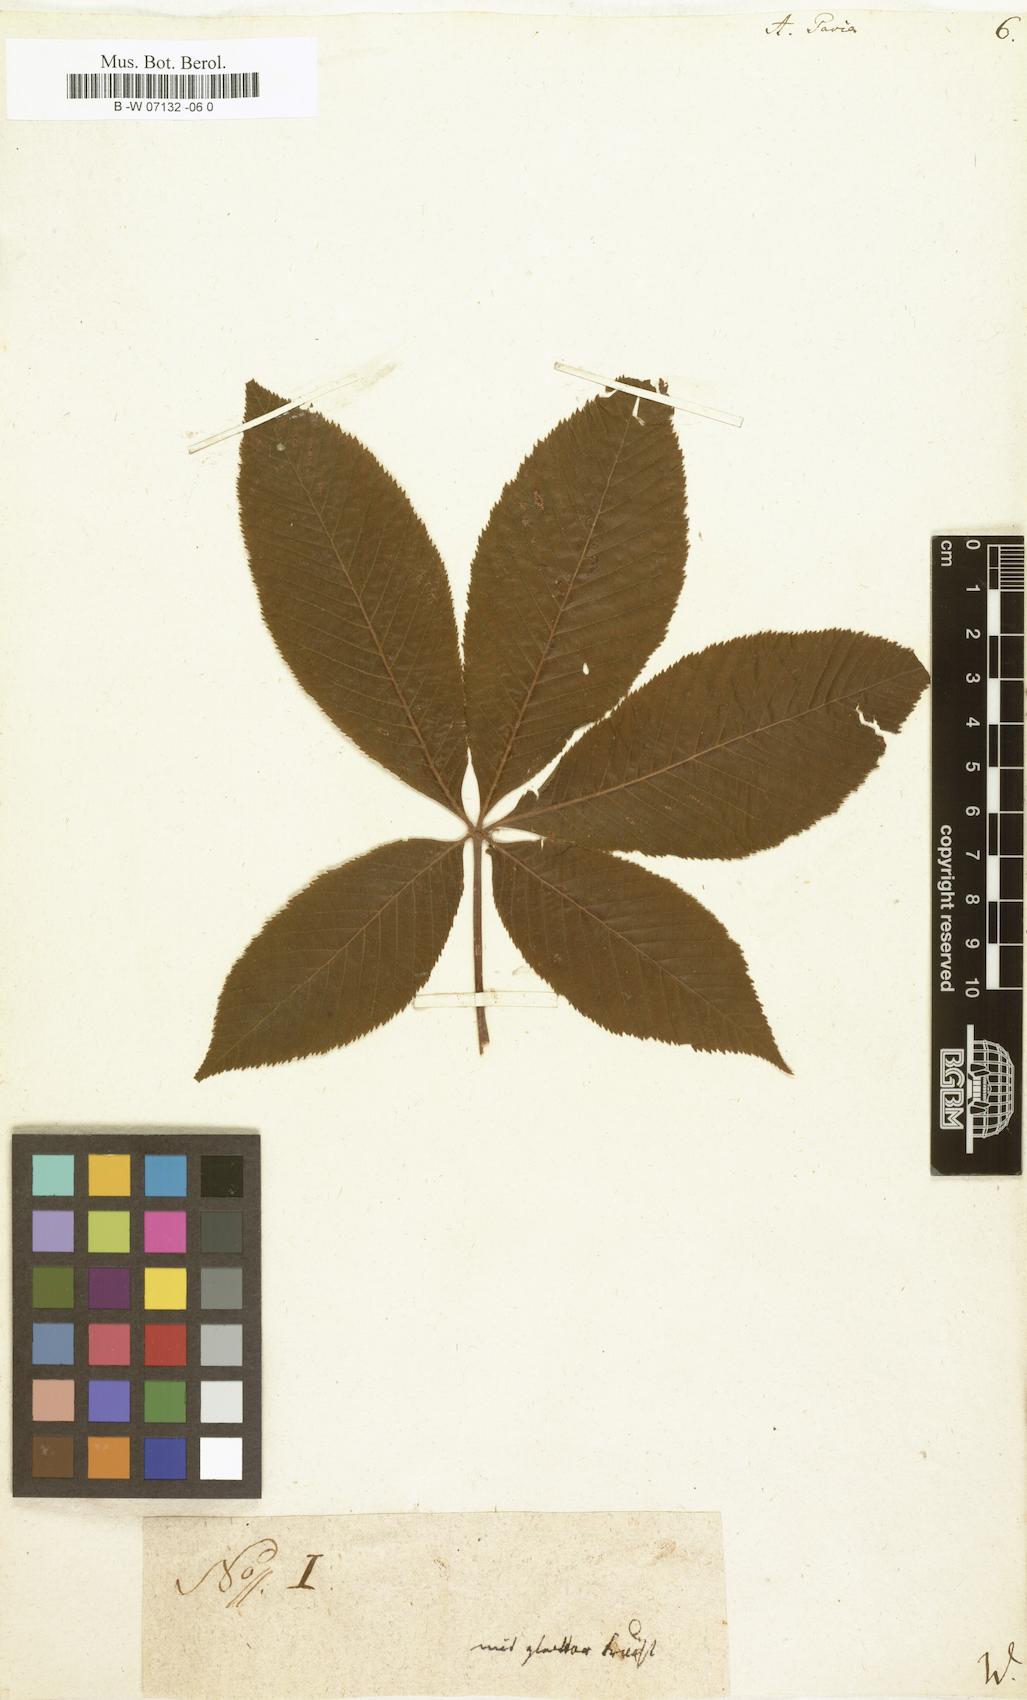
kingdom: Plantae
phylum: Tracheophyta
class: Magnoliopsida
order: Sapindales
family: Sapindaceae
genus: Aesculus
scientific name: Aesculus pavia
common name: Red buckeye
